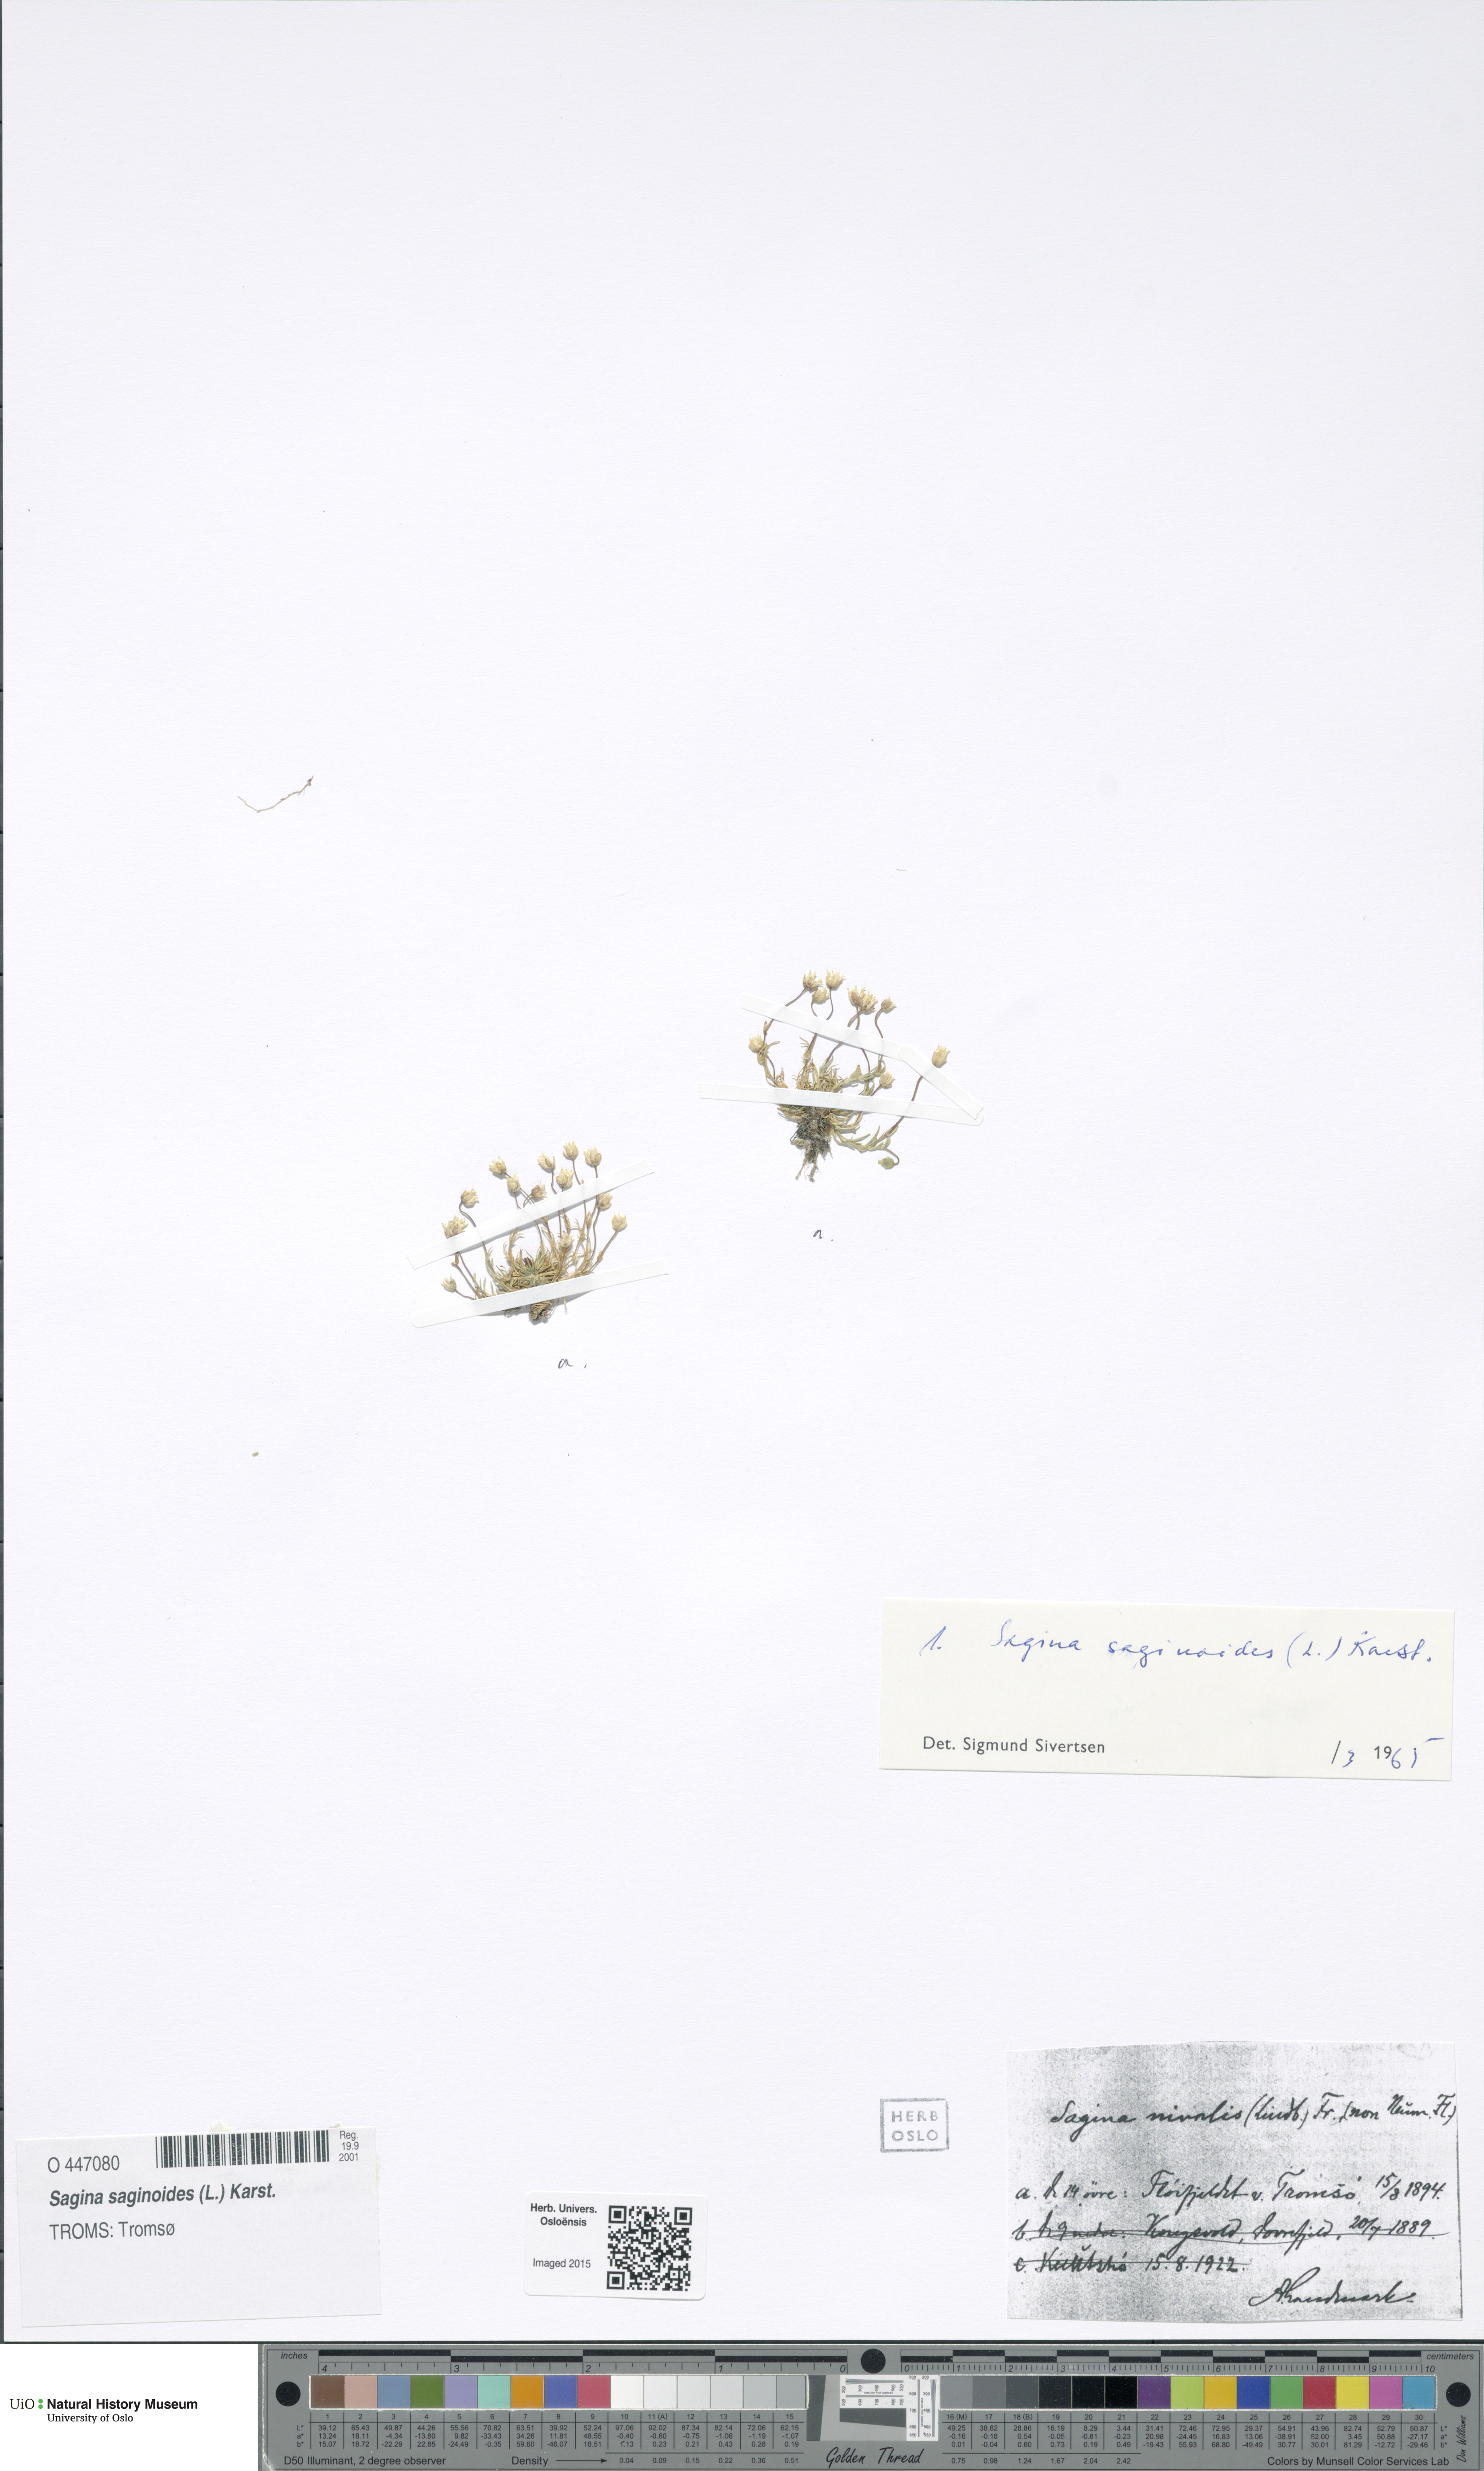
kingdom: Plantae
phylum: Tracheophyta
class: Magnoliopsida
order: Caryophyllales
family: Caryophyllaceae
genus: Sagina
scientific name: Sagina saginoides
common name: Alpine pearlwort
